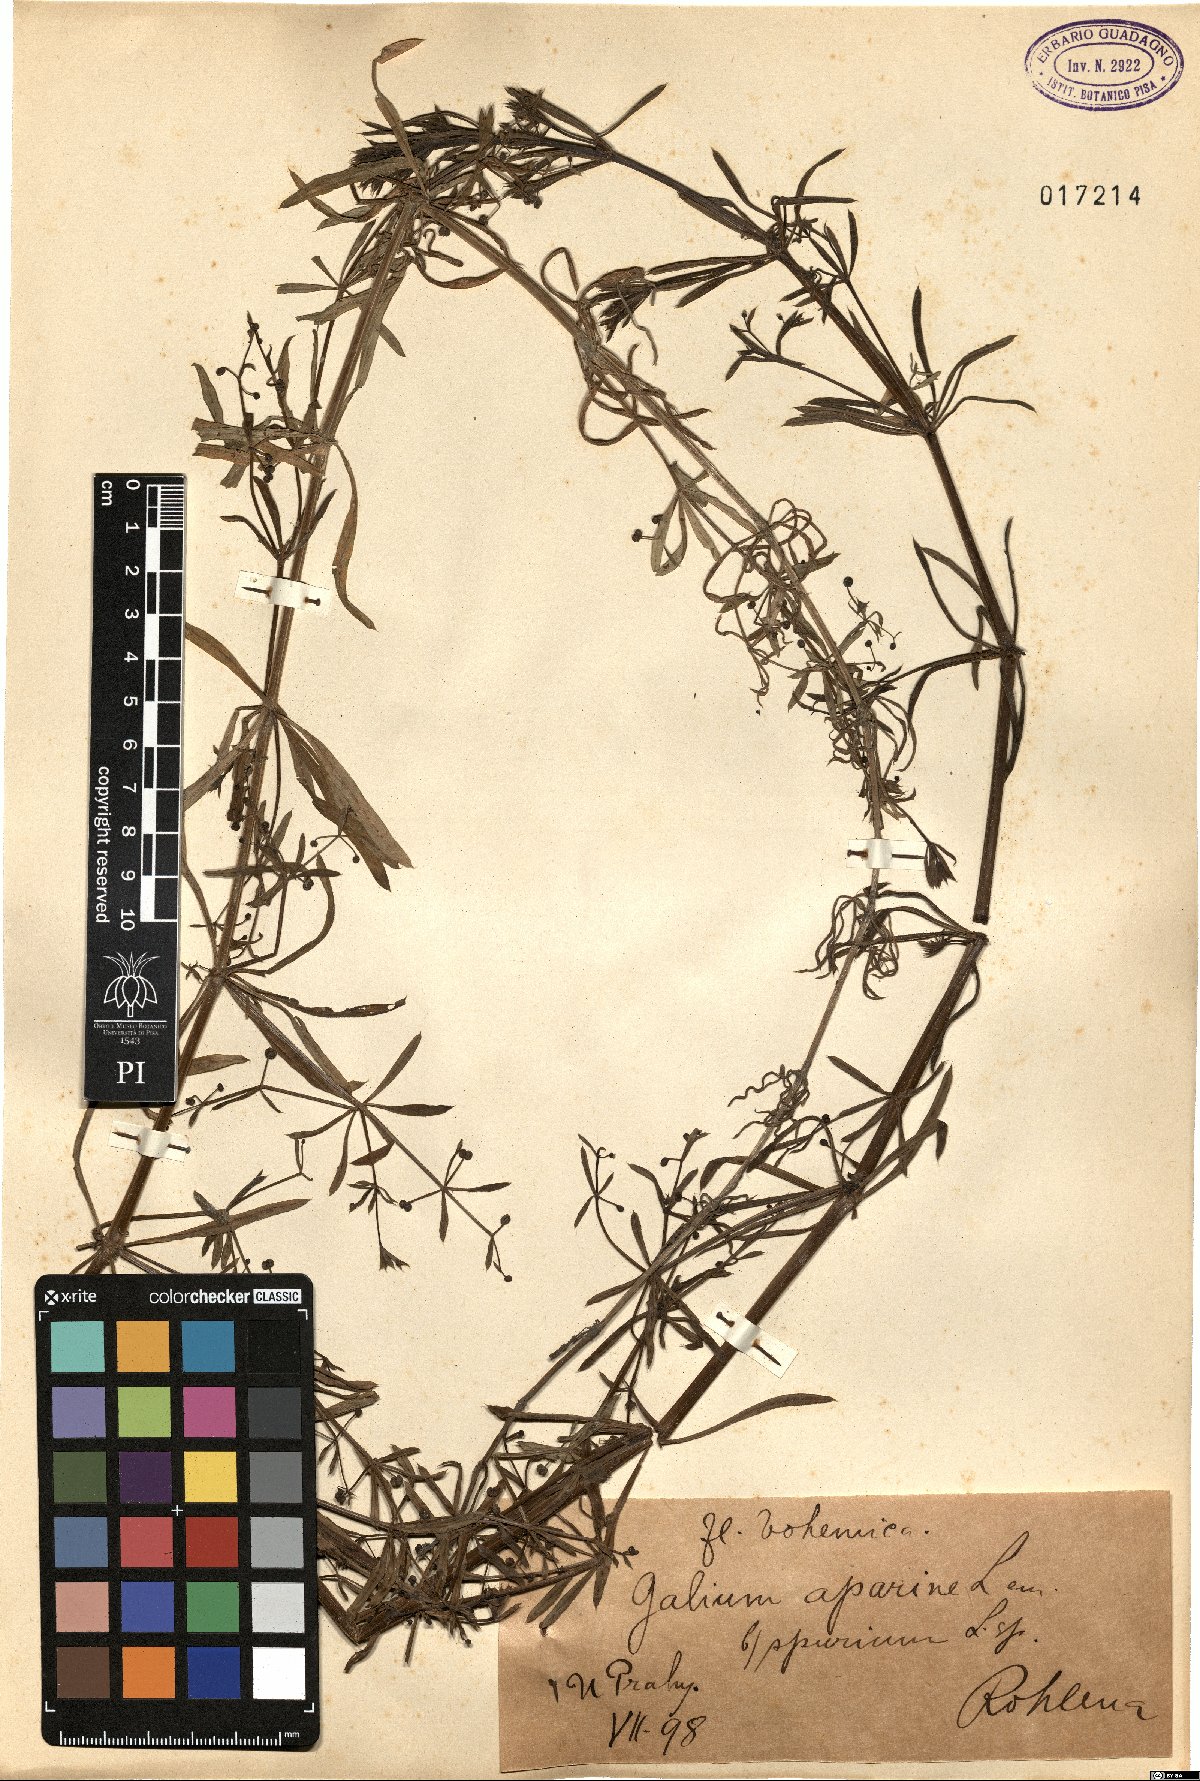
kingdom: Plantae
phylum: Tracheophyta
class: Magnoliopsida
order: Gentianales
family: Rubiaceae
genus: Galium
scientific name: Galium spurium
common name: False cleavers
